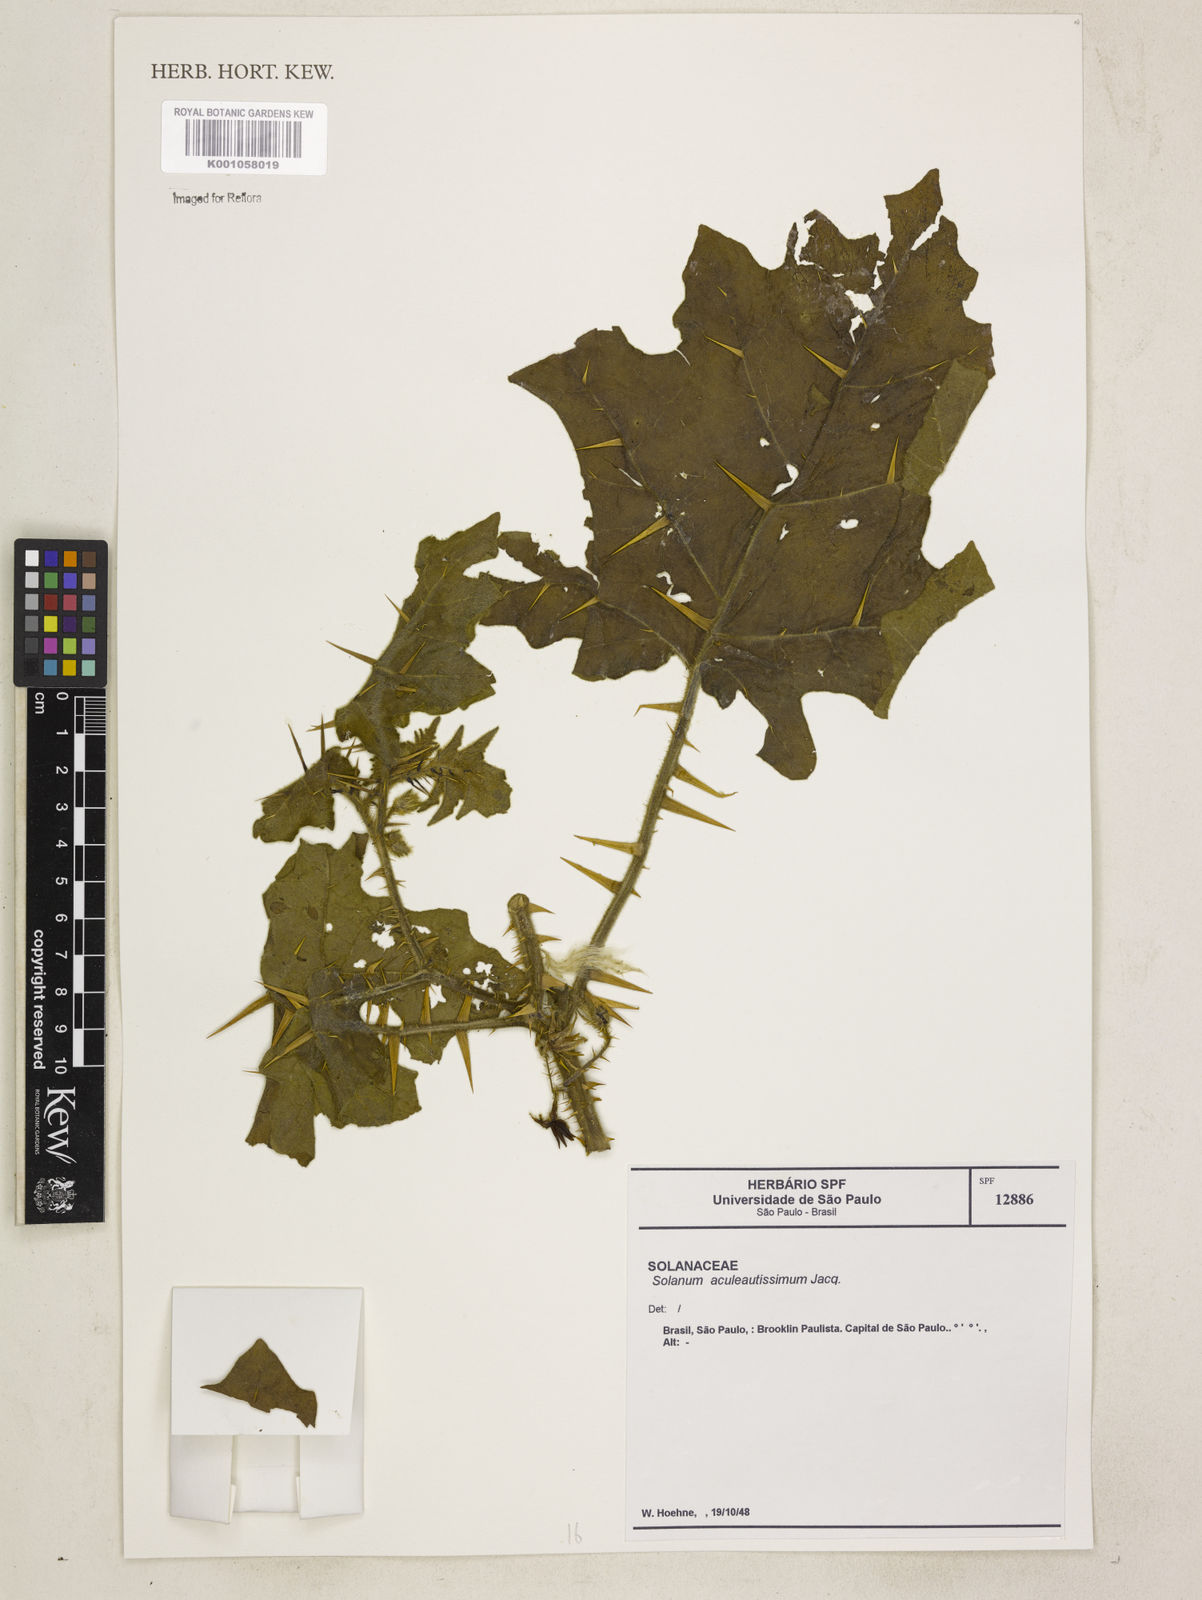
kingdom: Plantae
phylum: Tracheophyta
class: Magnoliopsida
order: Solanales
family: Solanaceae
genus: Solanum
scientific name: Solanum aculeatissimum
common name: Dutch eggplant
